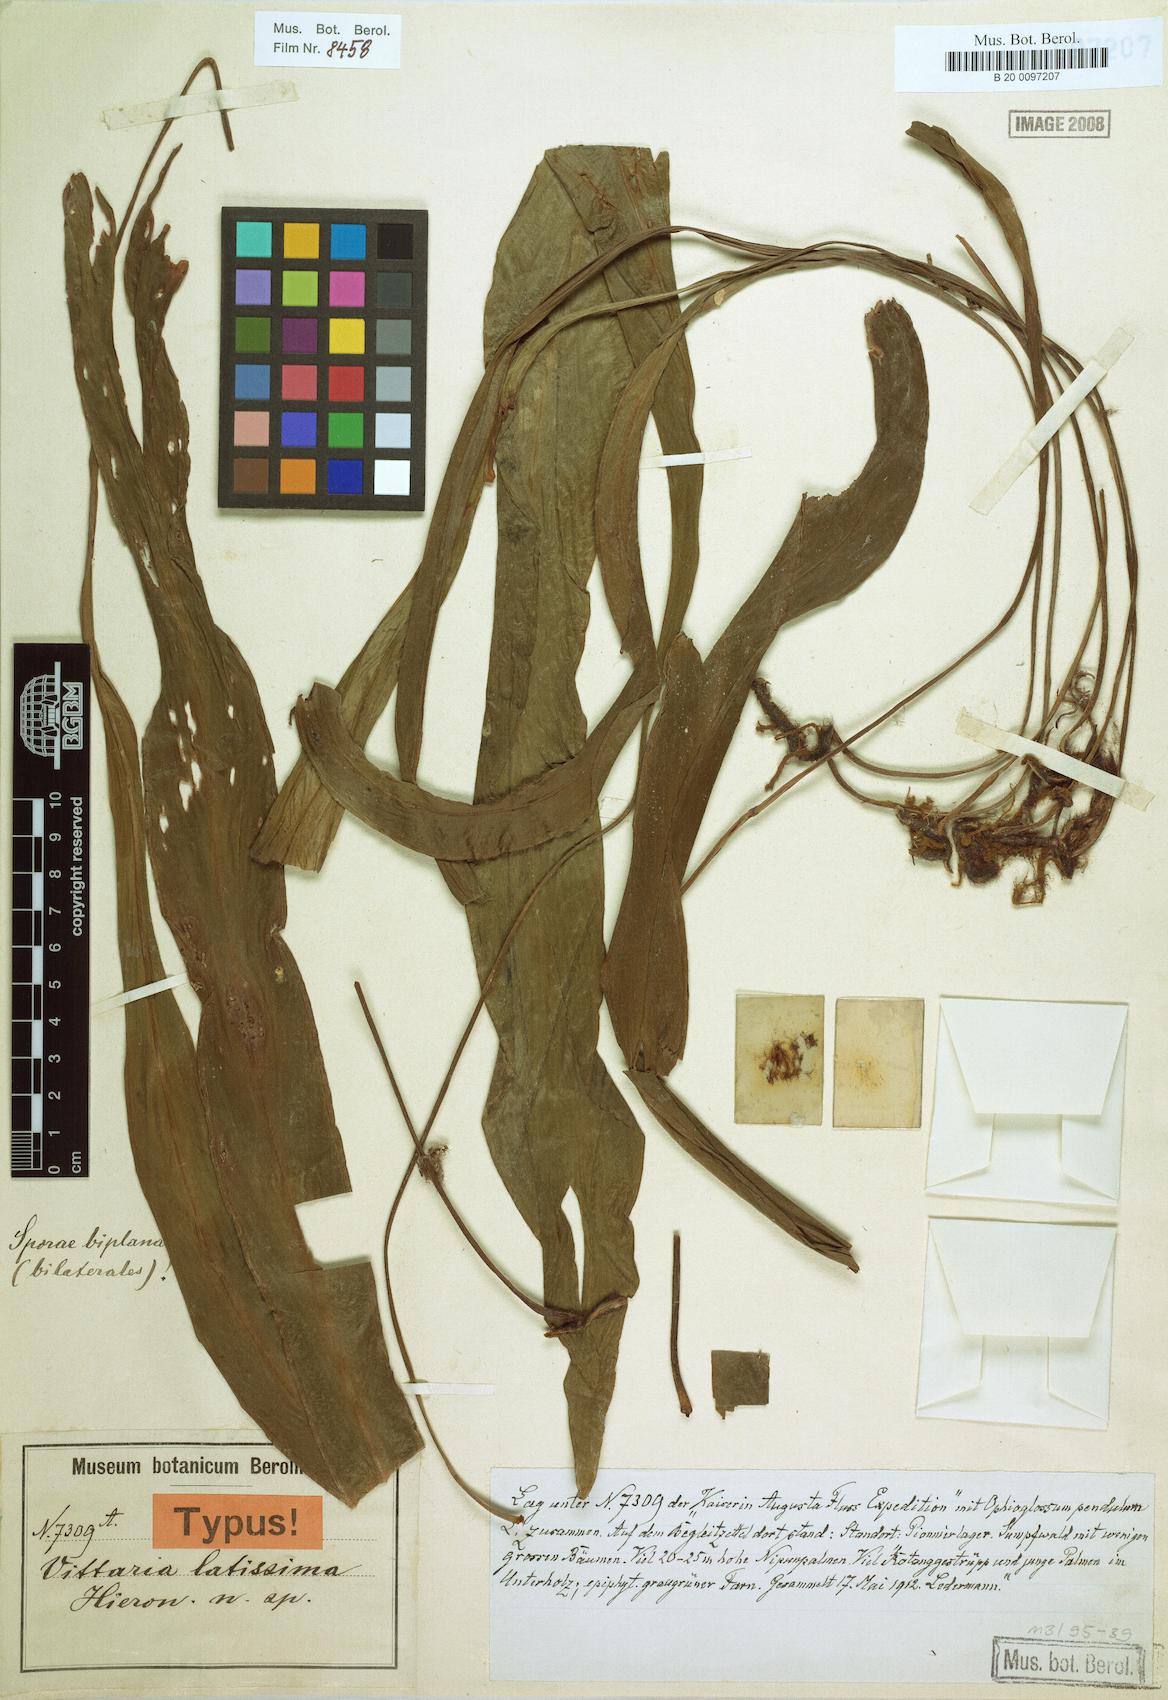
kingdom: Plantae
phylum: Tracheophyta
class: Polypodiopsida
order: Polypodiales
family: Pteridaceae
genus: Haplopteris
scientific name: Haplopteris elongata
